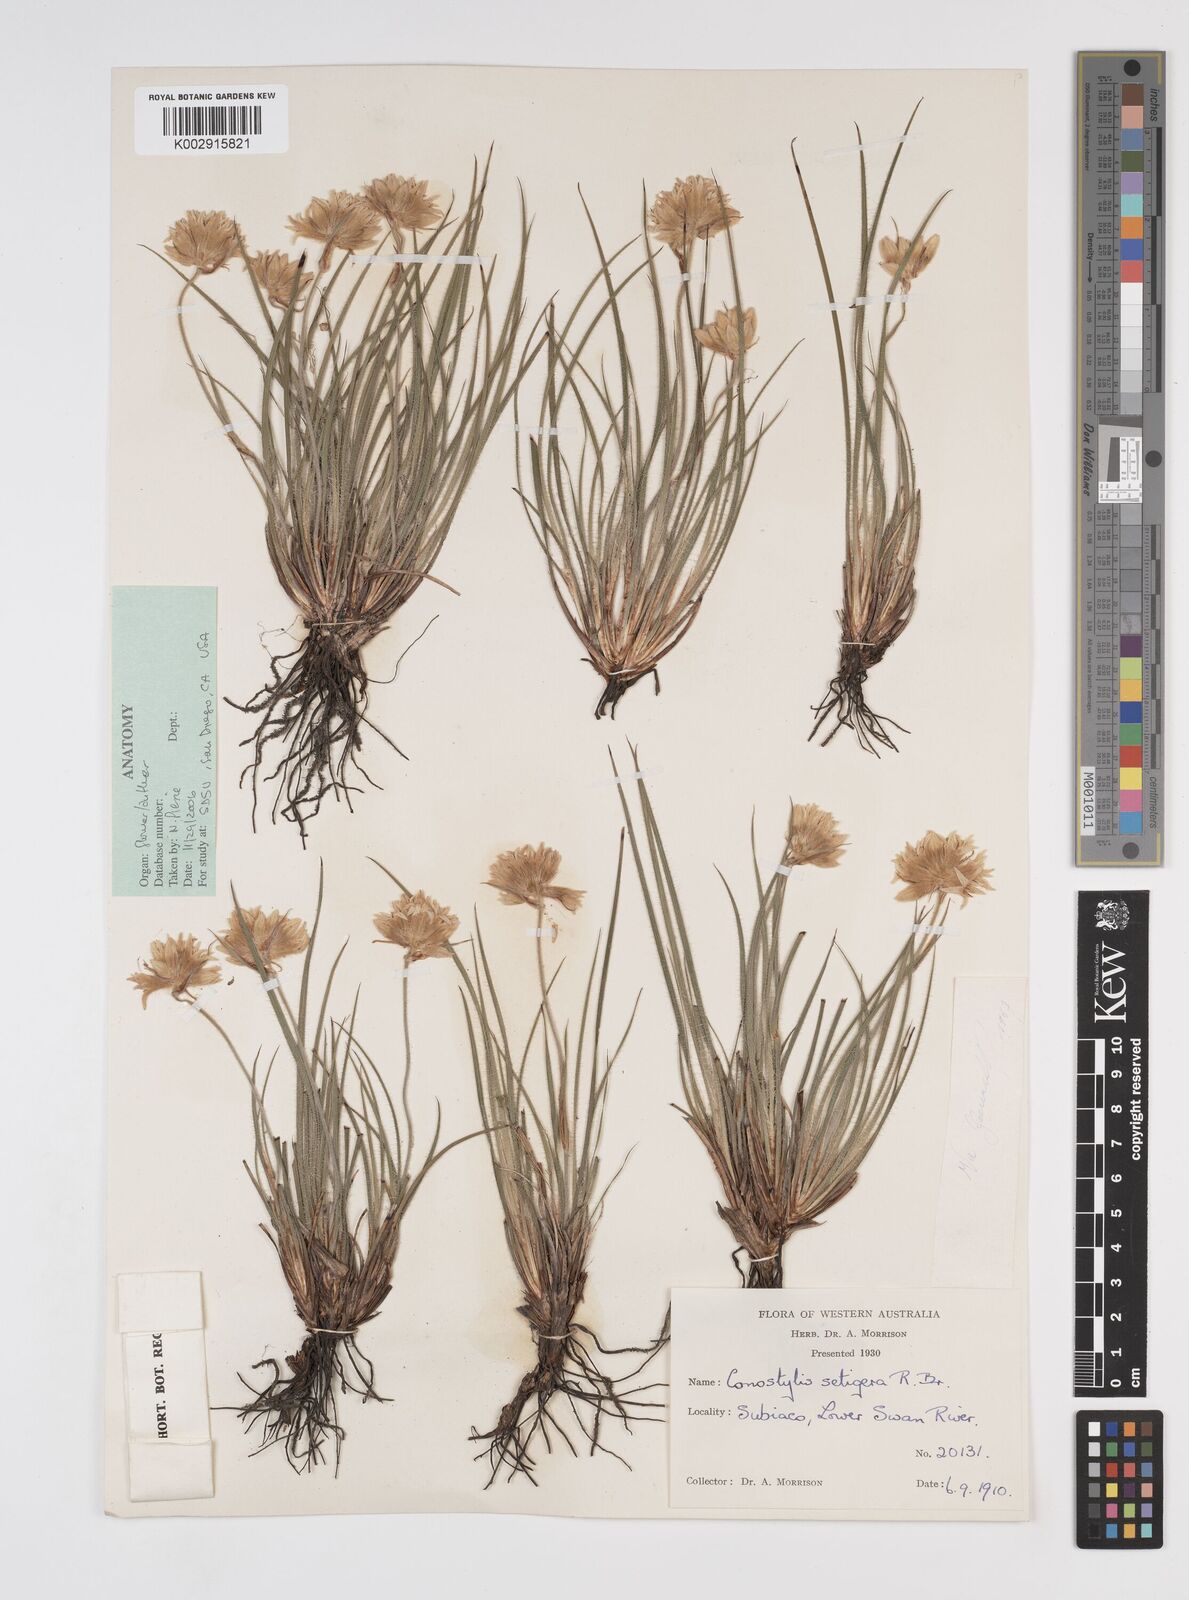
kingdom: Plantae
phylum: Tracheophyta
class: Liliopsida
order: Commelinales
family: Haemodoraceae
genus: Conostylis
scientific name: Conostylis setigera
